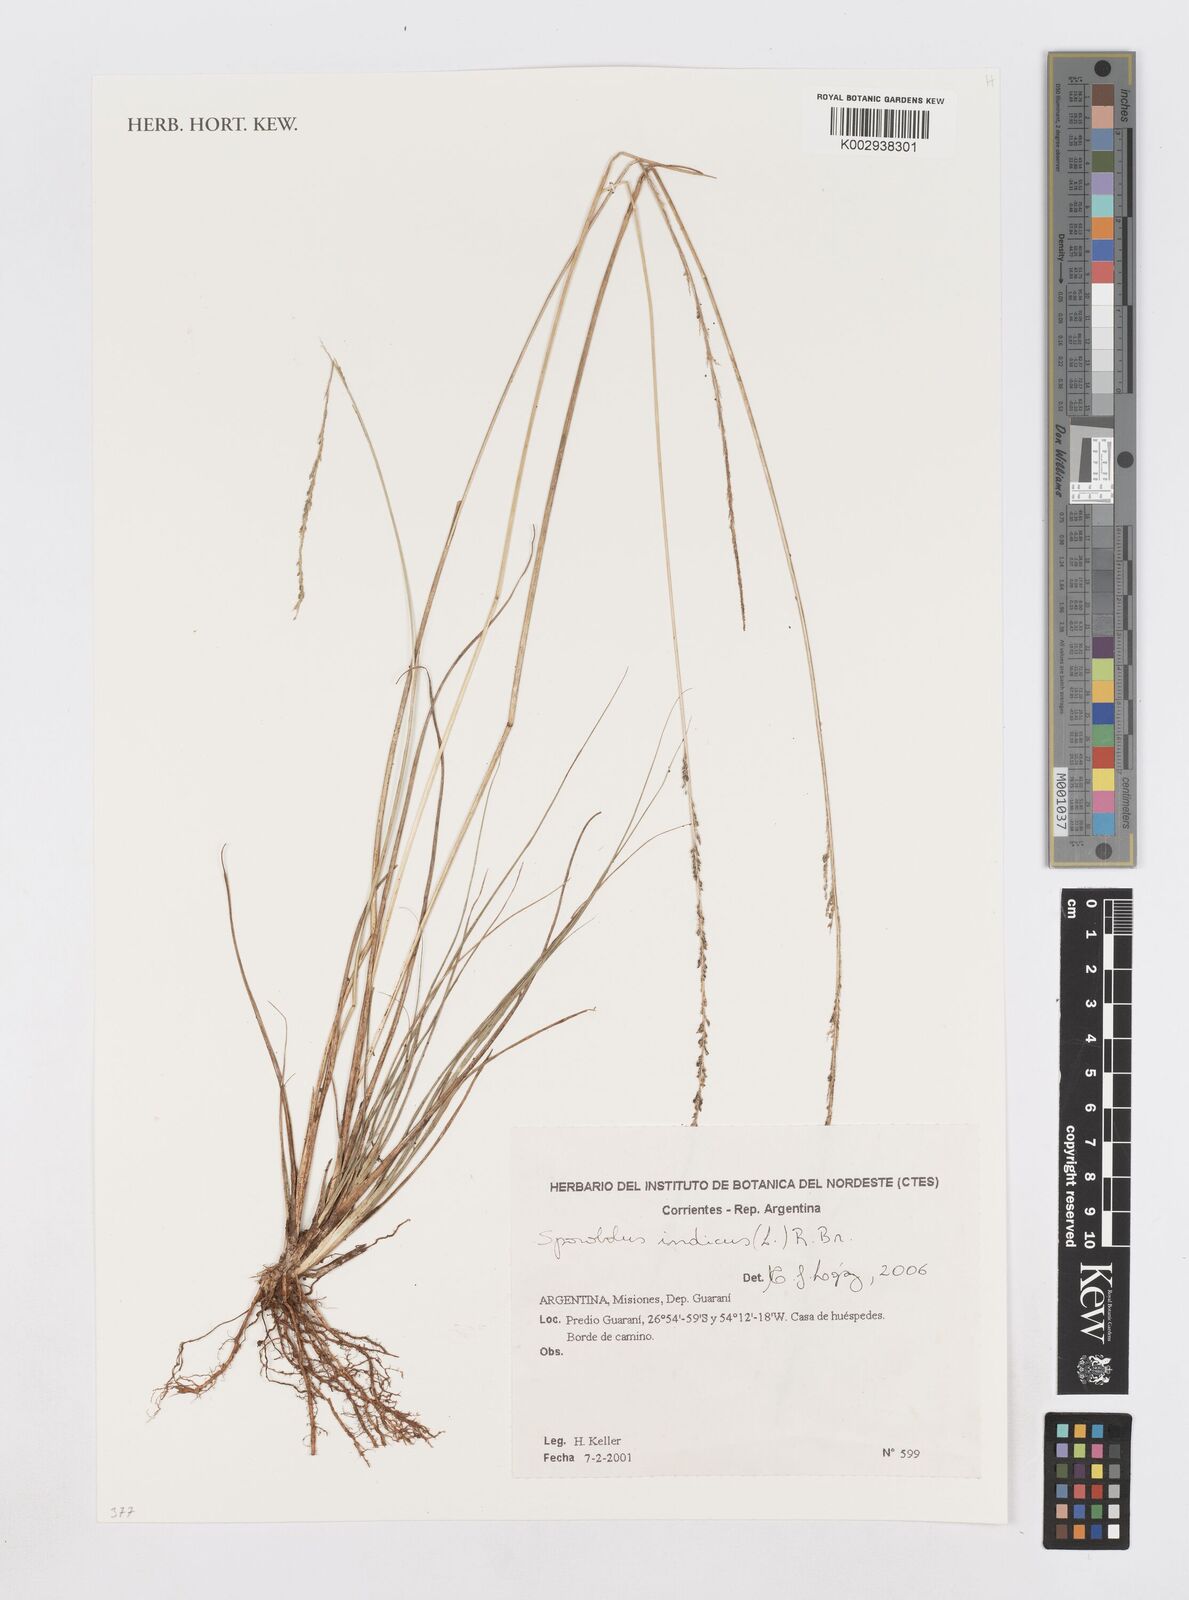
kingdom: Plantae
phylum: Tracheophyta
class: Liliopsida
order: Poales
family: Poaceae
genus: Sporobolus
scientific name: Sporobolus indicus
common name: Smut grass
